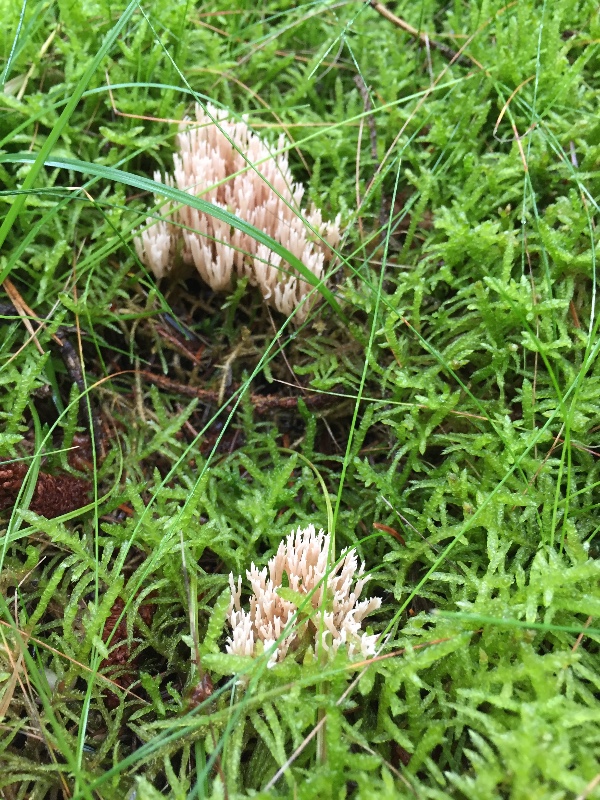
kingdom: Fungi
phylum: Basidiomycota
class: Agaricomycetes
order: Agaricales
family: Omphalotaceae
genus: Collybiopsis
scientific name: Collybiopsis peronata
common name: bestøvlet fladhat
